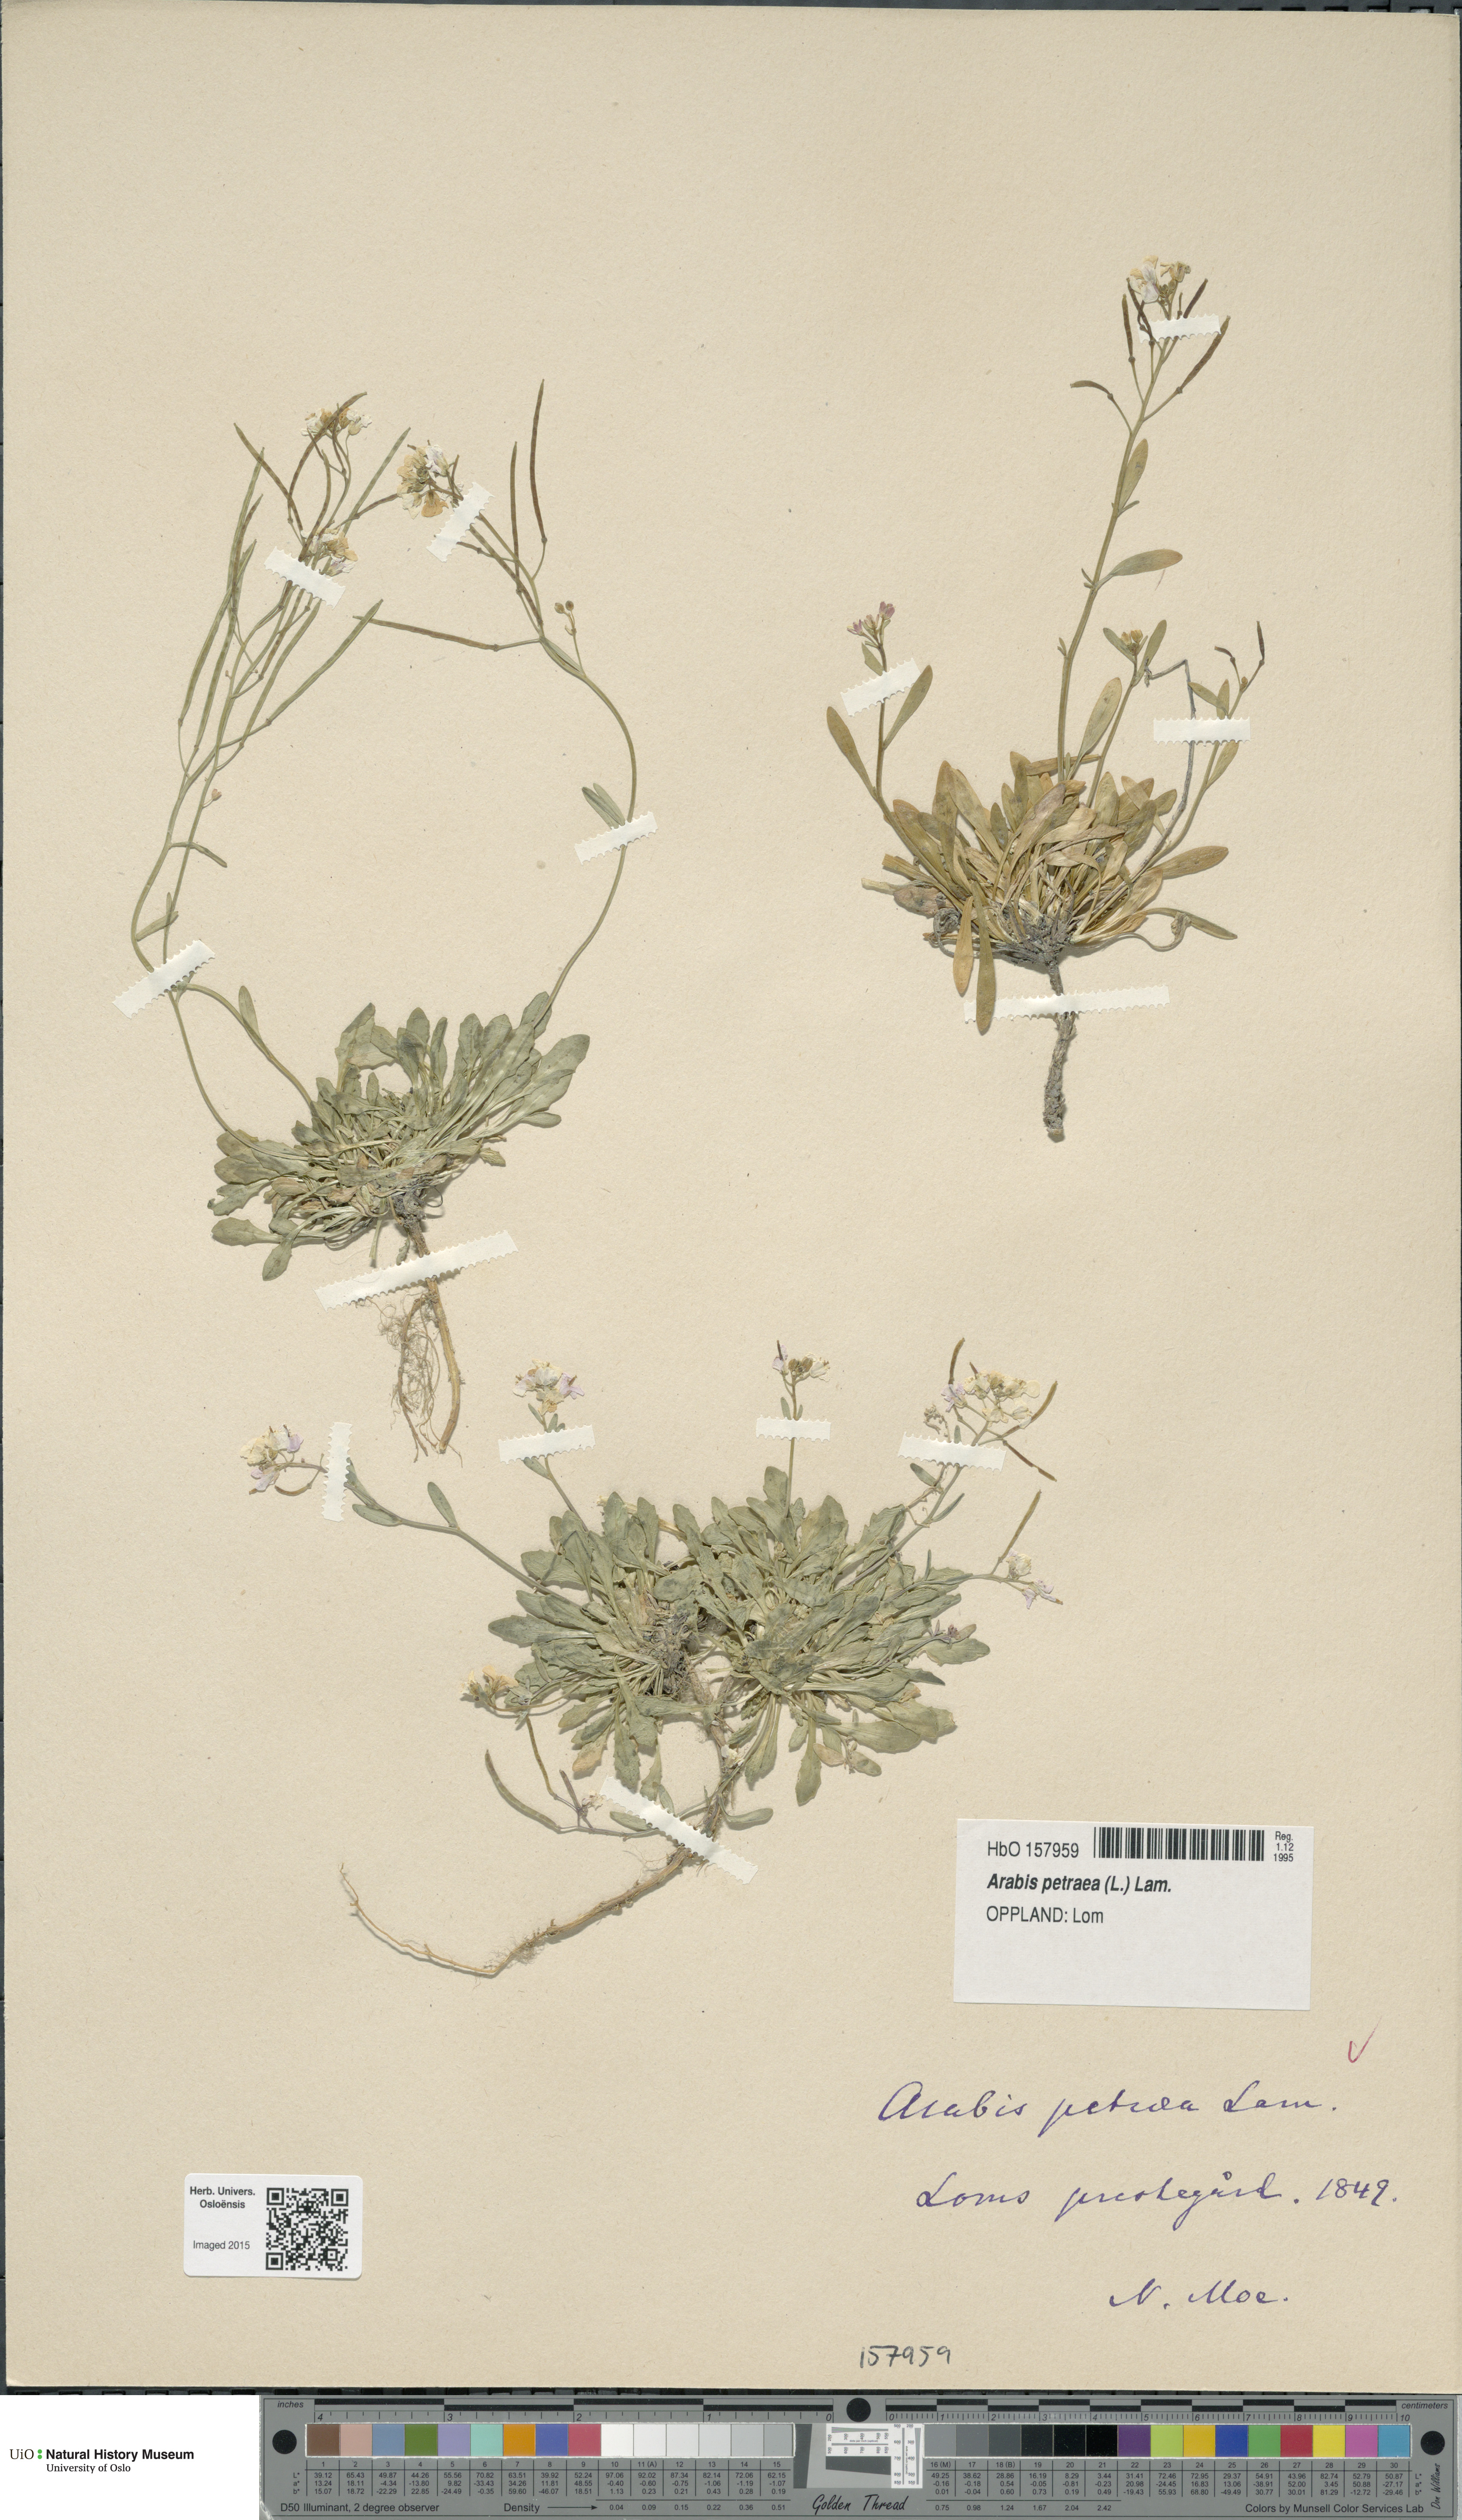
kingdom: Plantae
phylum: Tracheophyta
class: Magnoliopsida
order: Brassicales
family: Brassicaceae
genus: Arabidopsis
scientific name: Arabidopsis petraea
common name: Northern rock-cress
